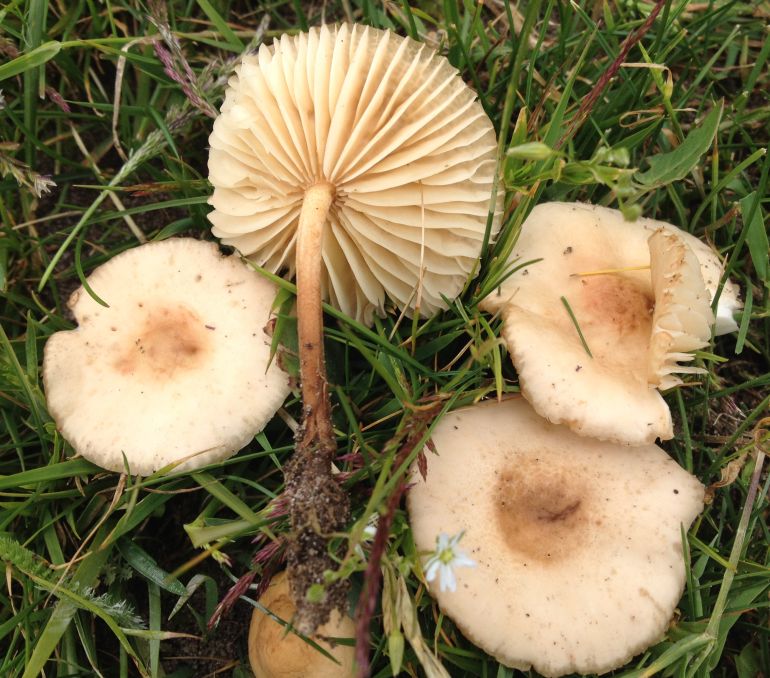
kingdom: Fungi
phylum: Basidiomycota
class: Agaricomycetes
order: Agaricales
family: Marasmiaceae
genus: Marasmius
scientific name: Marasmius oreades
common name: elledans-bruskhat
